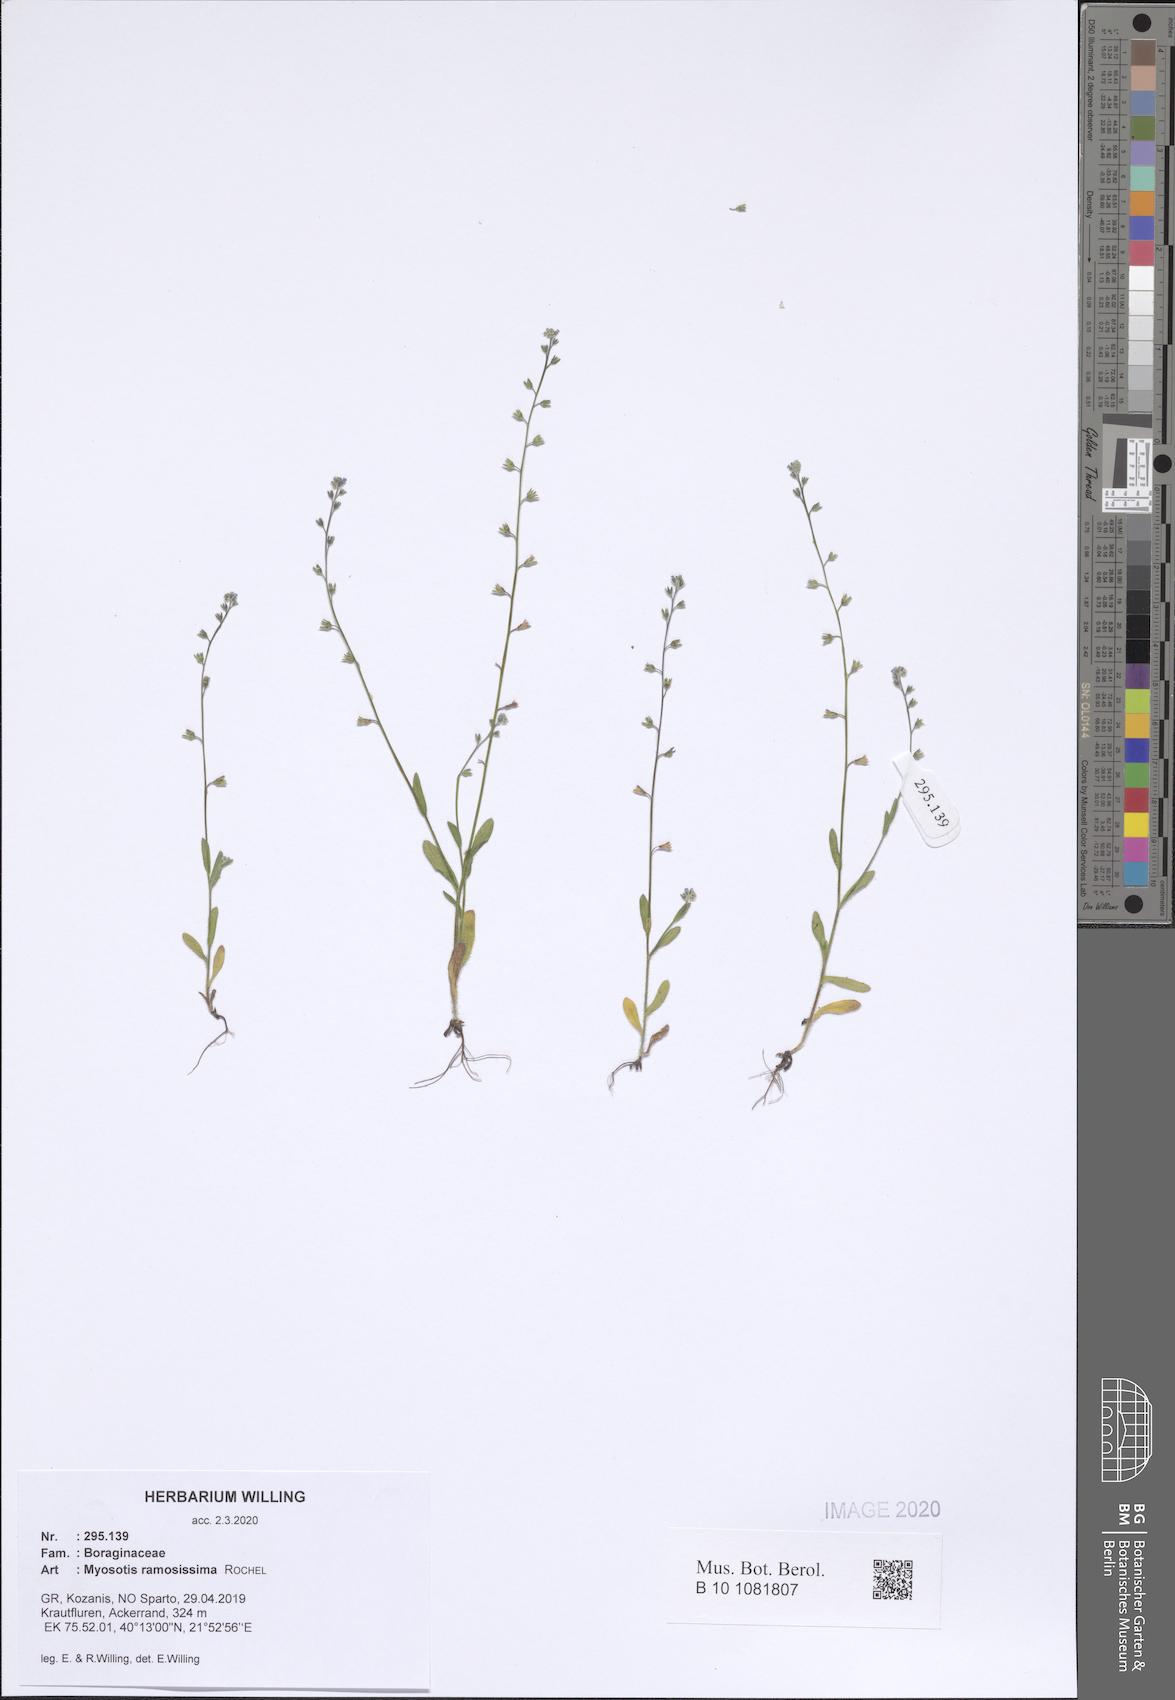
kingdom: Plantae
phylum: Tracheophyta
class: Magnoliopsida
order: Boraginales
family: Boraginaceae
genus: Myosotis
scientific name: Myosotis ramosissima
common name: Early forget-me-not
